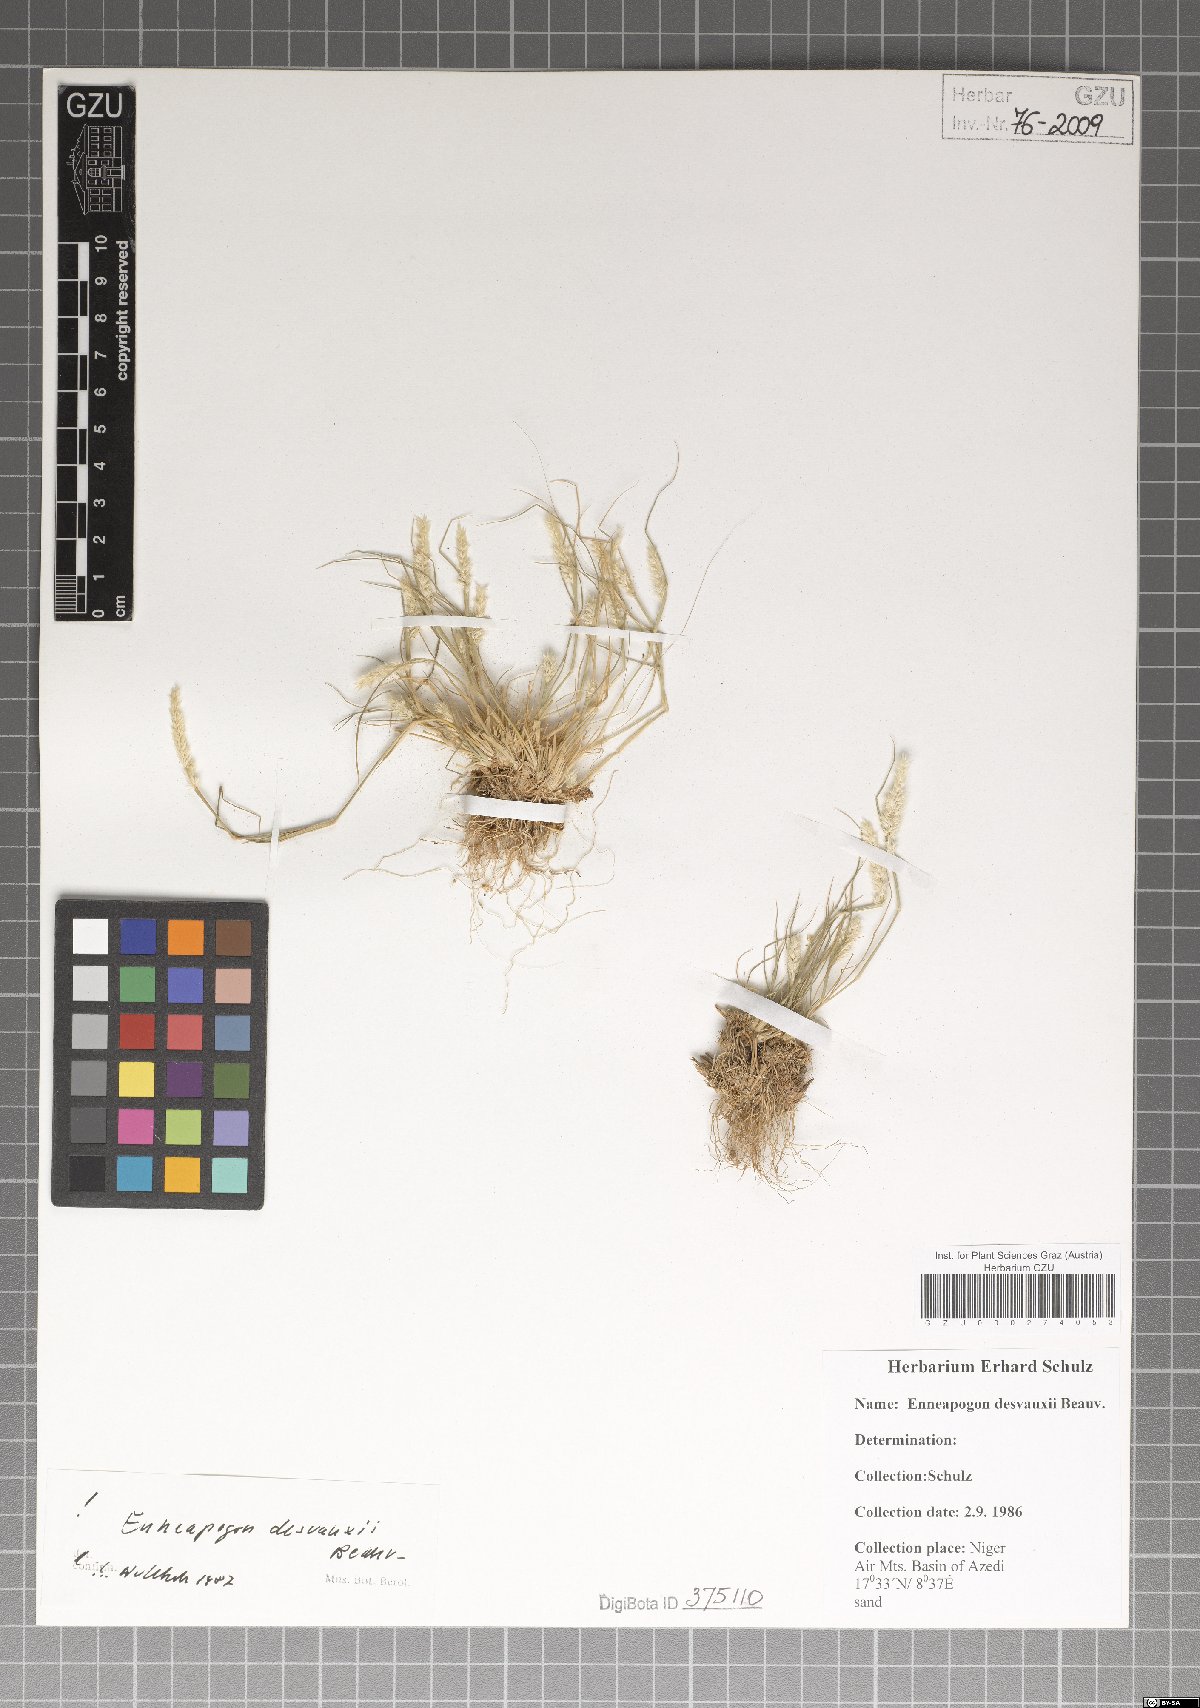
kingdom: Plantae
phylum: Tracheophyta
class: Liliopsida
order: Poales
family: Poaceae
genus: Enneapogon
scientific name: Enneapogon desvauxii
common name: Feather pappus grass
